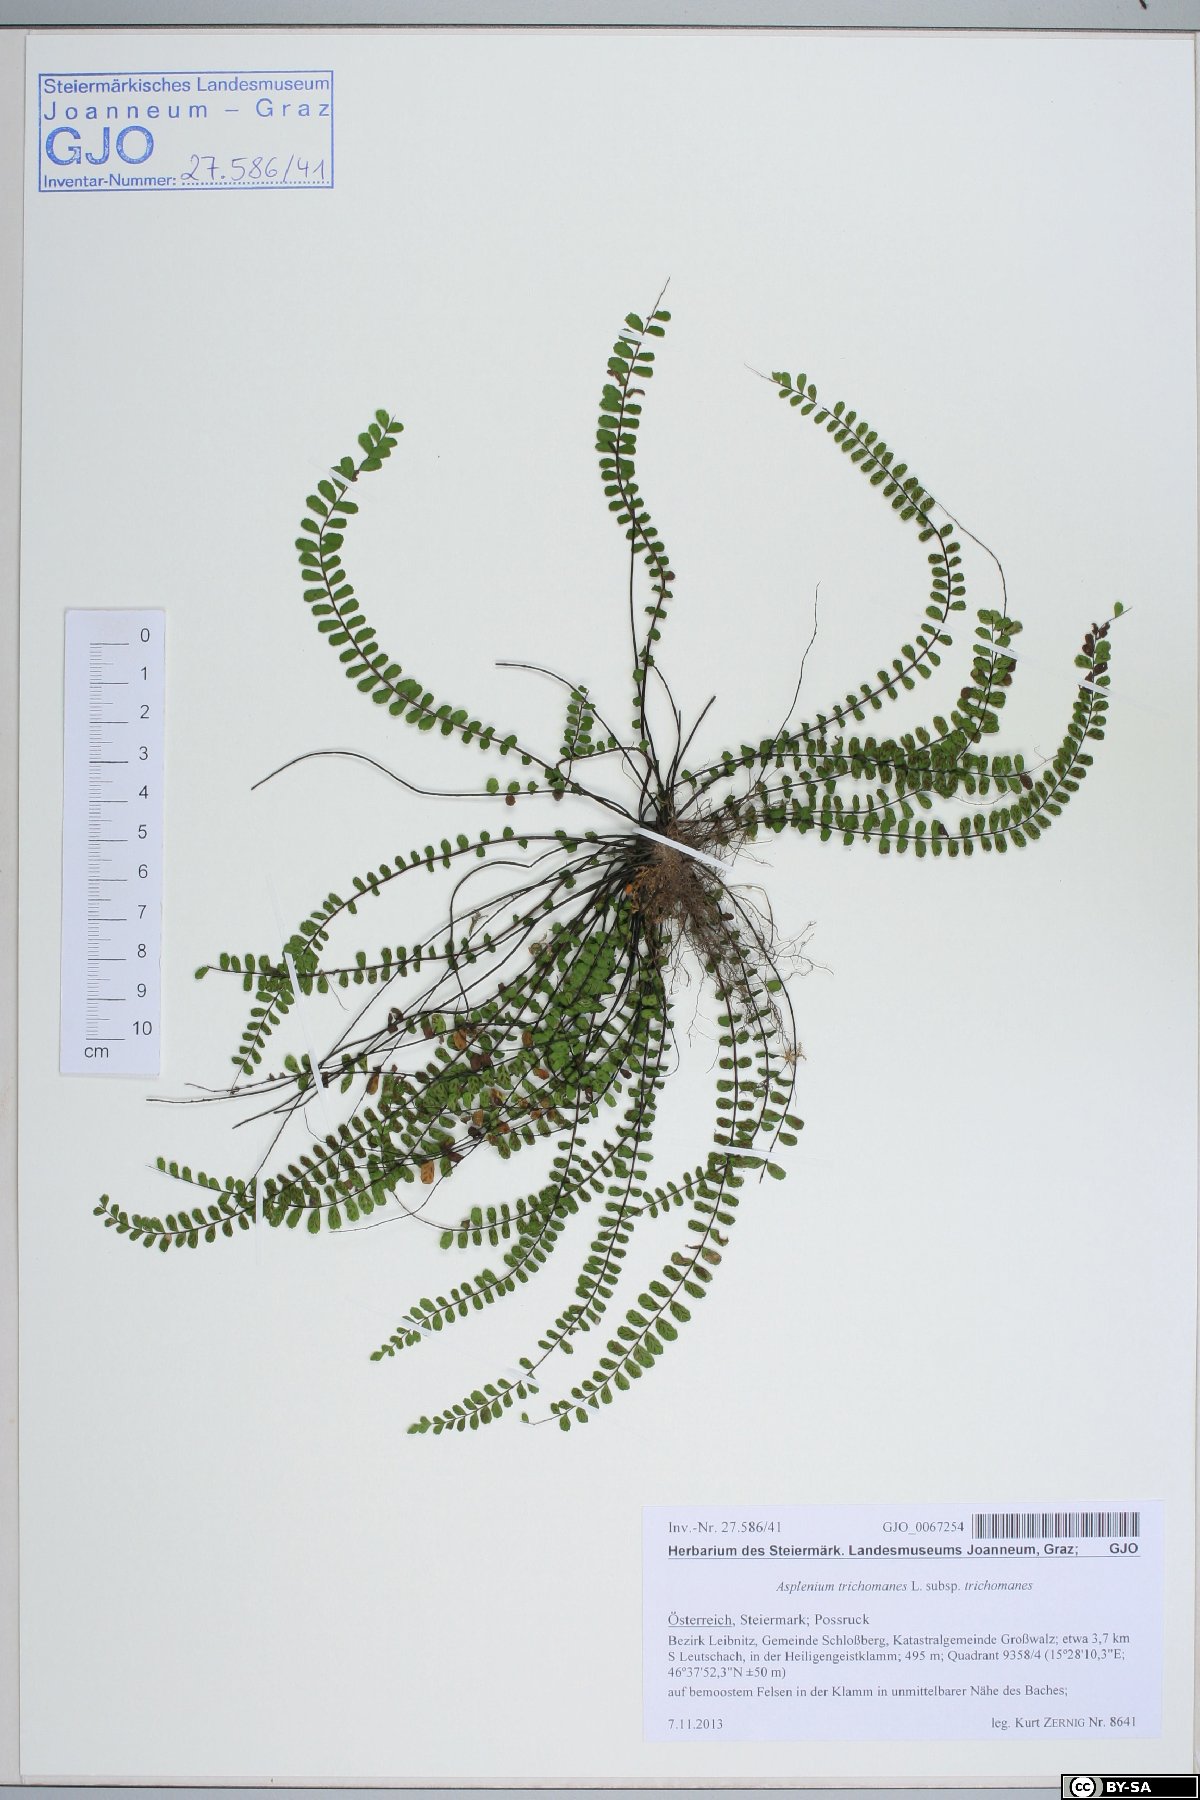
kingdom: Plantae
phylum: Tracheophyta
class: Polypodiopsida
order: Polypodiales
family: Aspleniaceae
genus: Asplenium
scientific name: Asplenium trichomanes
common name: Maidenhair spleenwort
